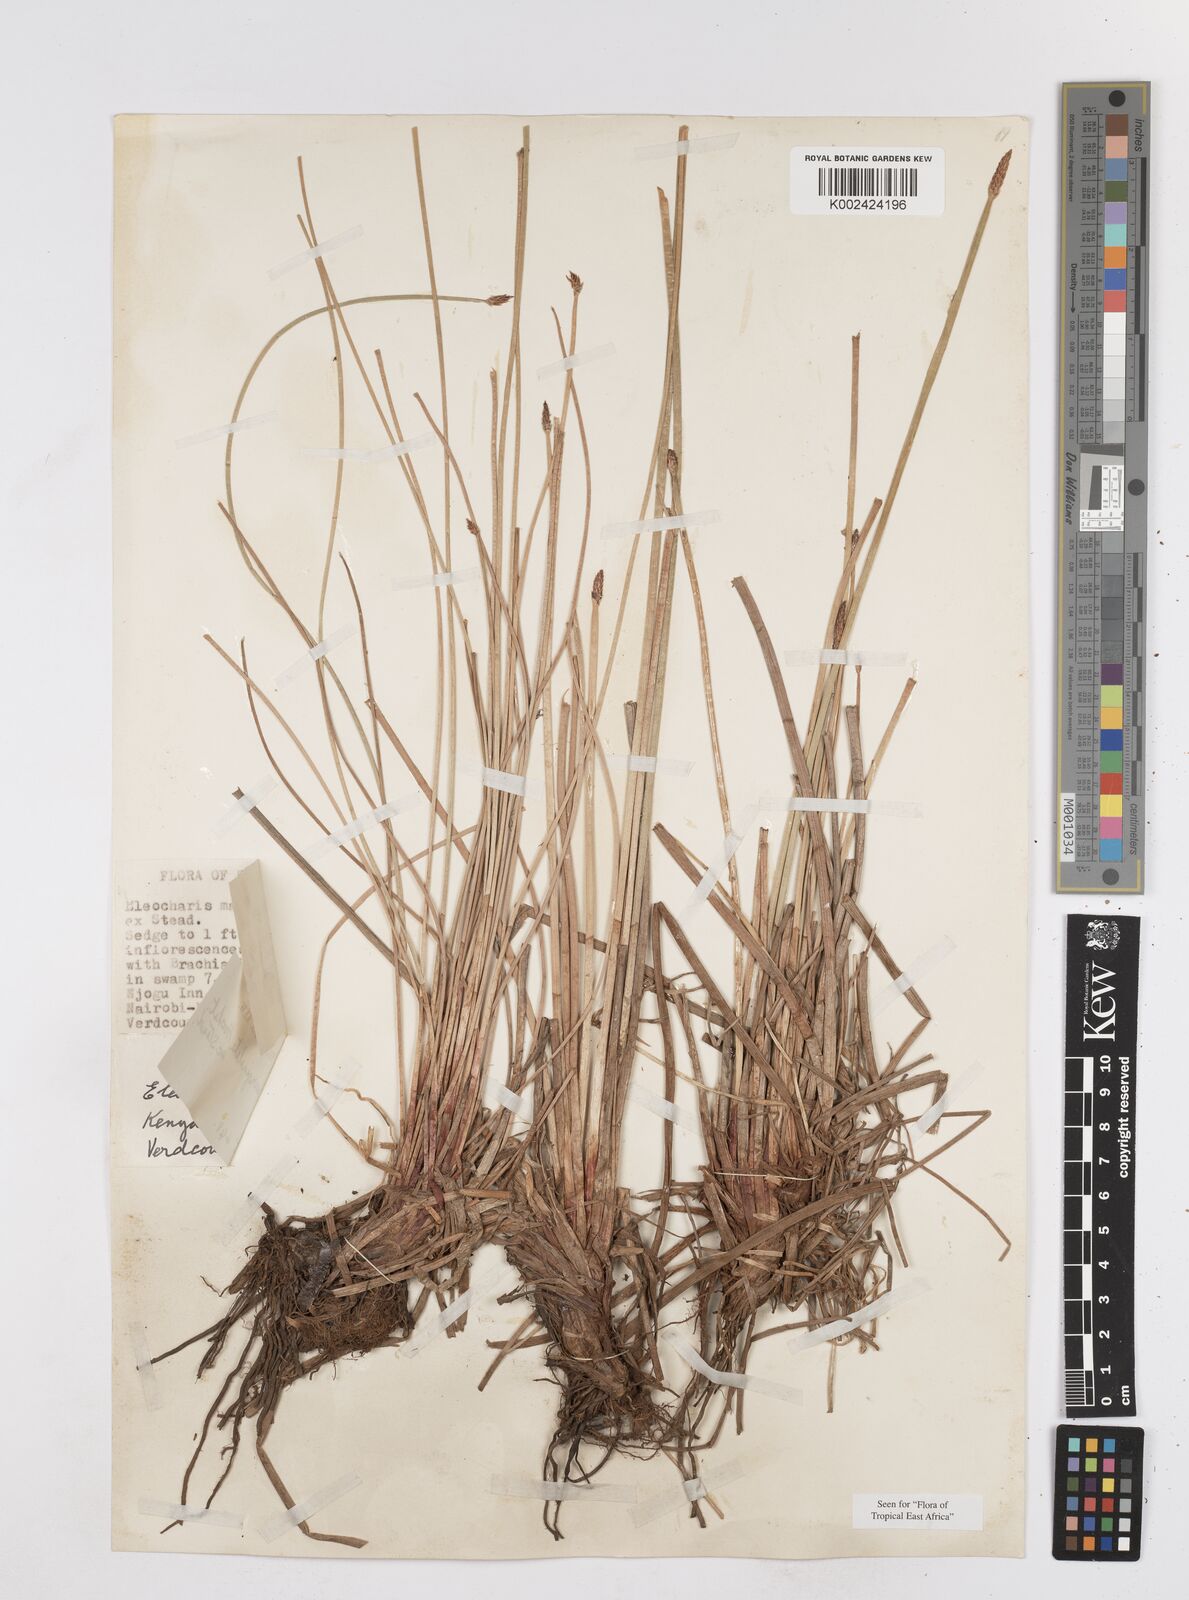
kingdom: Plantae
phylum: Tracheophyta
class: Liliopsida
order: Poales
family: Cyperaceae
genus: Eleocharis
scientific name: Eleocharis marginulata
